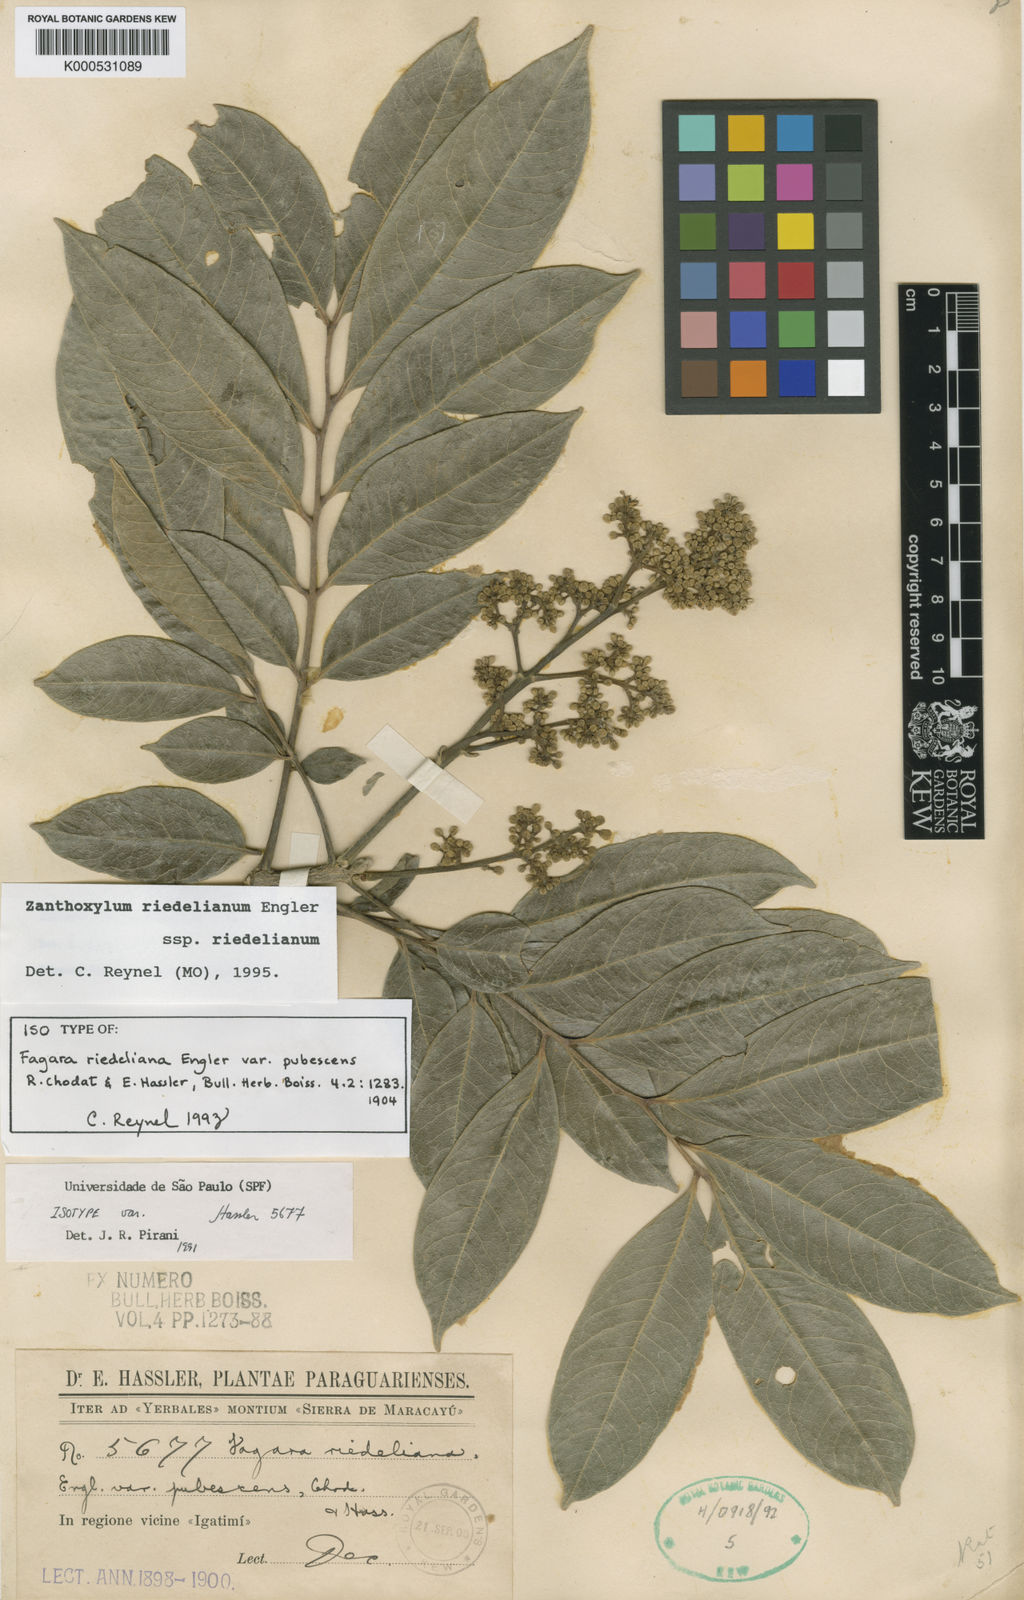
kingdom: Plantae
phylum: Tracheophyta
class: Magnoliopsida
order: Sapindales
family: Rutaceae
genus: Zanthoxylum
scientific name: Zanthoxylum riedelianum
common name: White copal
